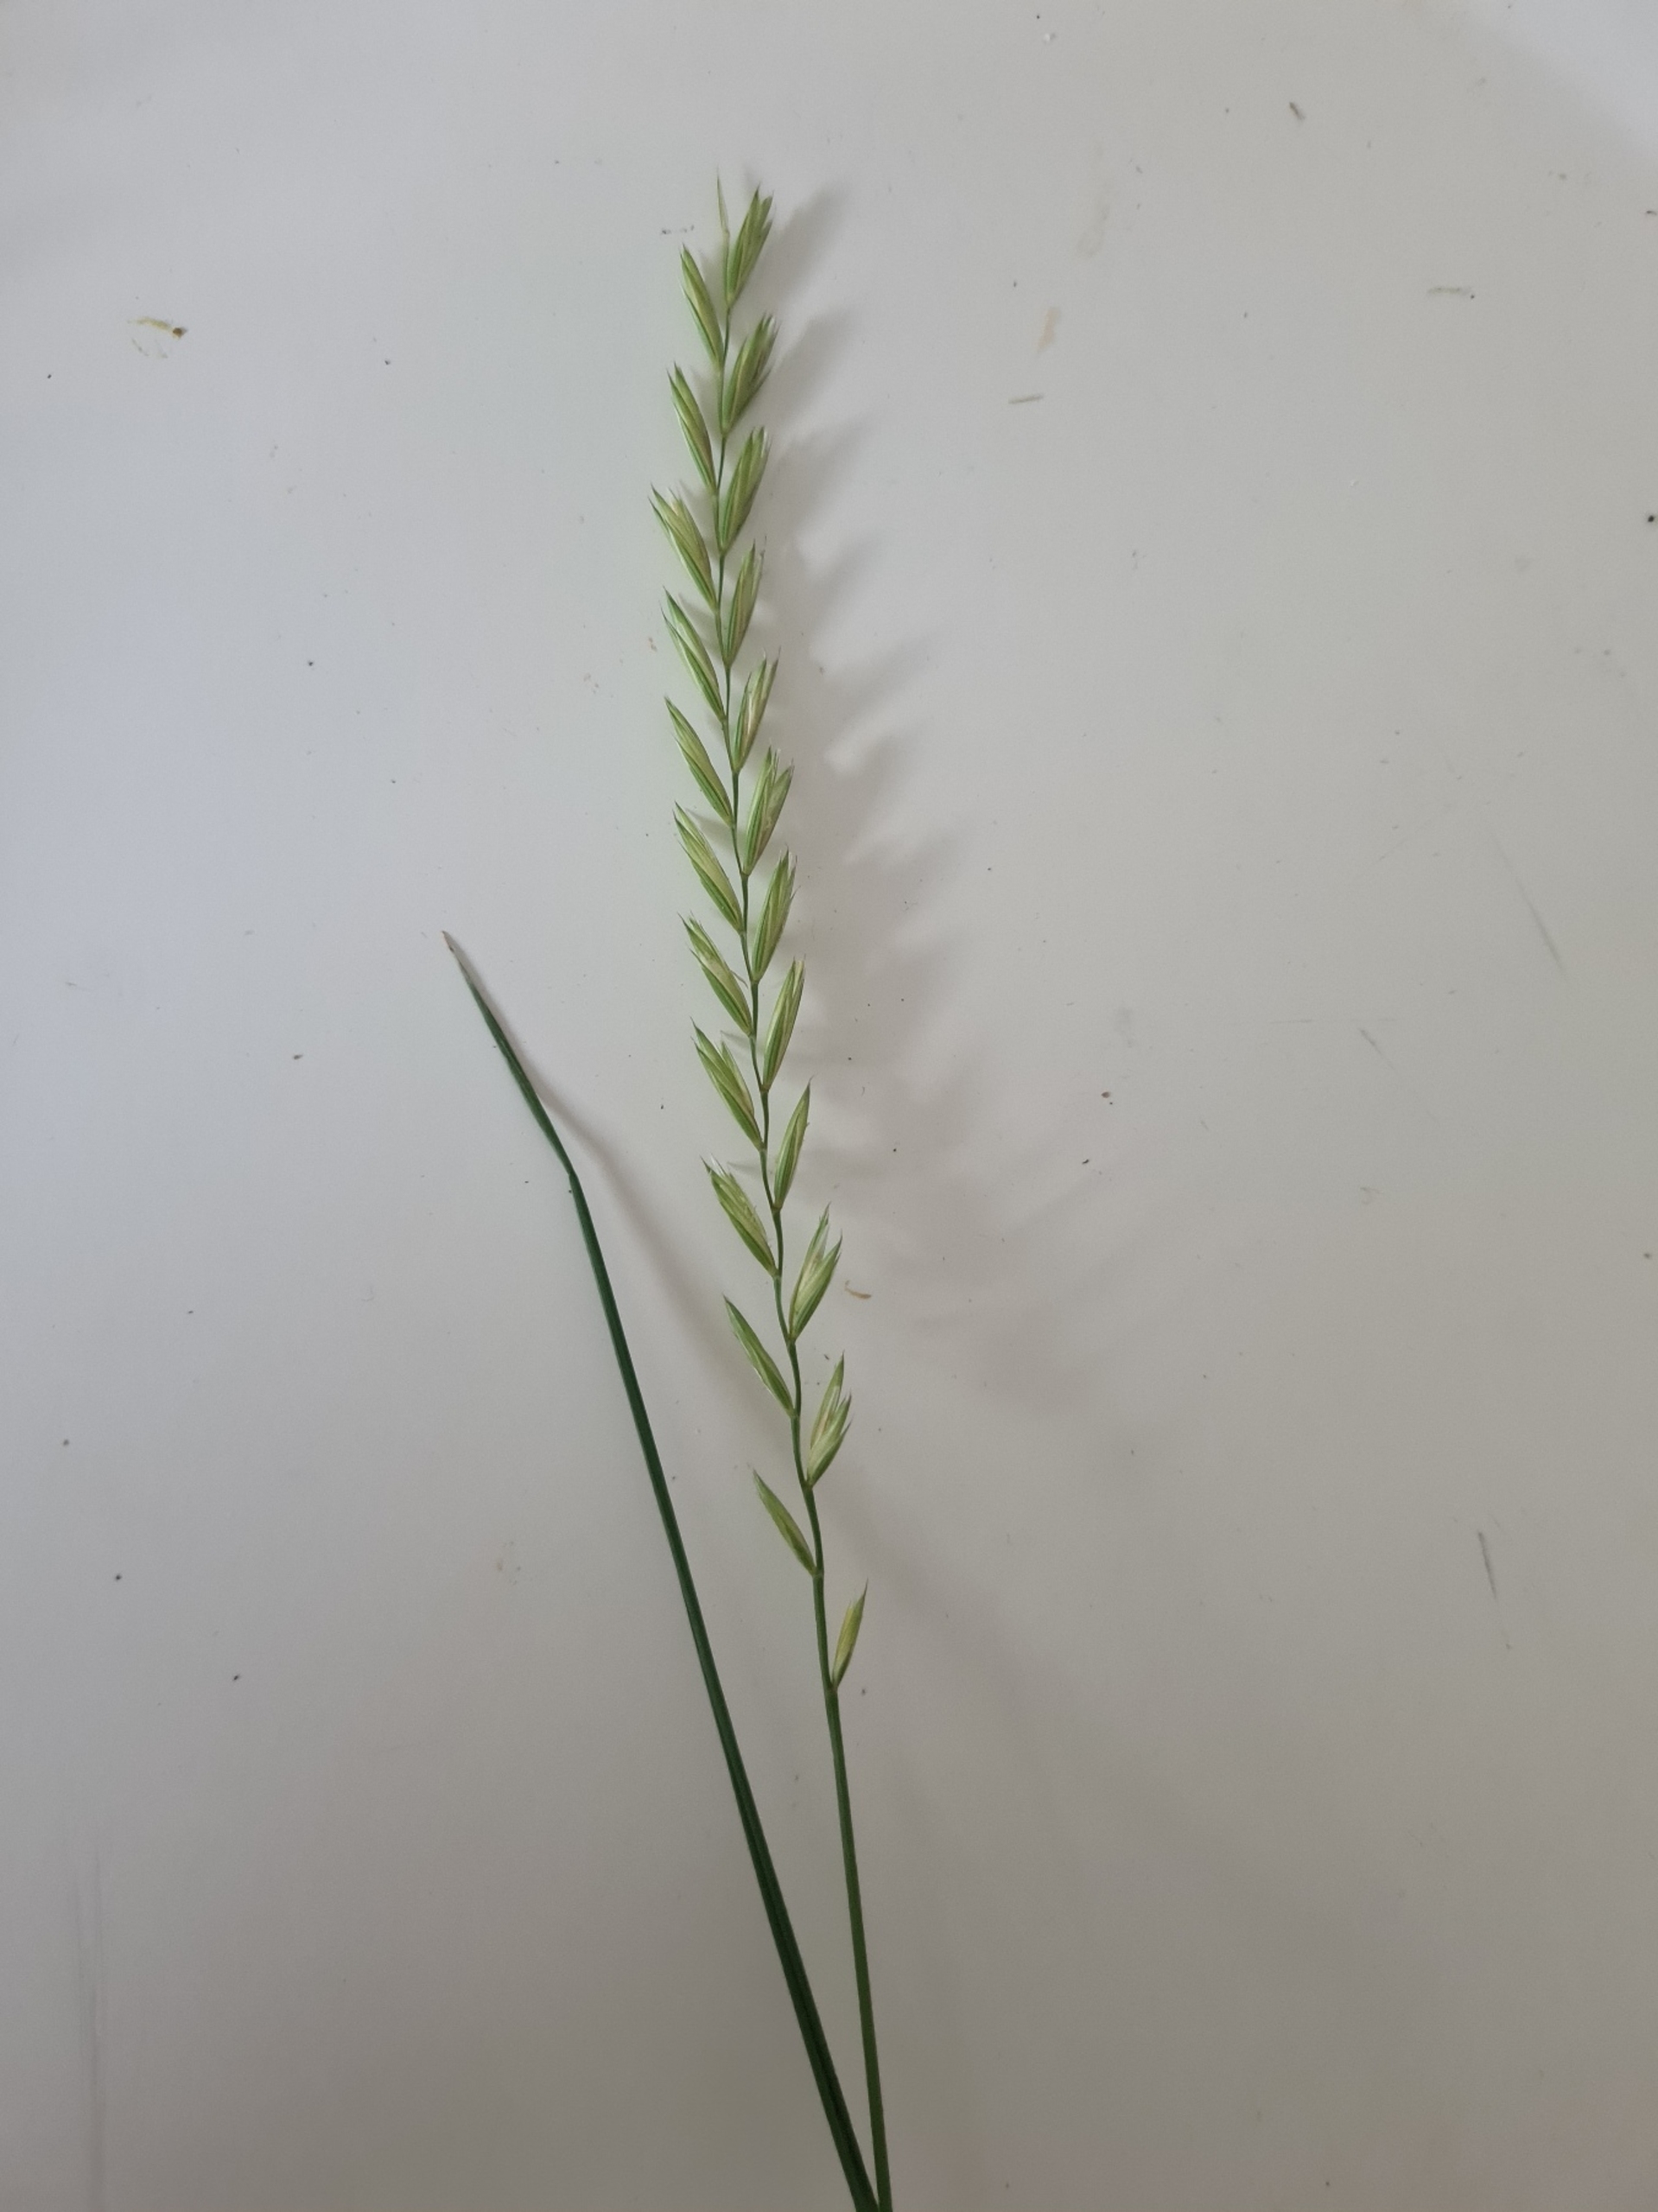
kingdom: Plantae
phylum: Tracheophyta
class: Liliopsida
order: Poales
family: Poaceae
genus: Elymus
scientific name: Elymus repens
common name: Almindelig kvik
